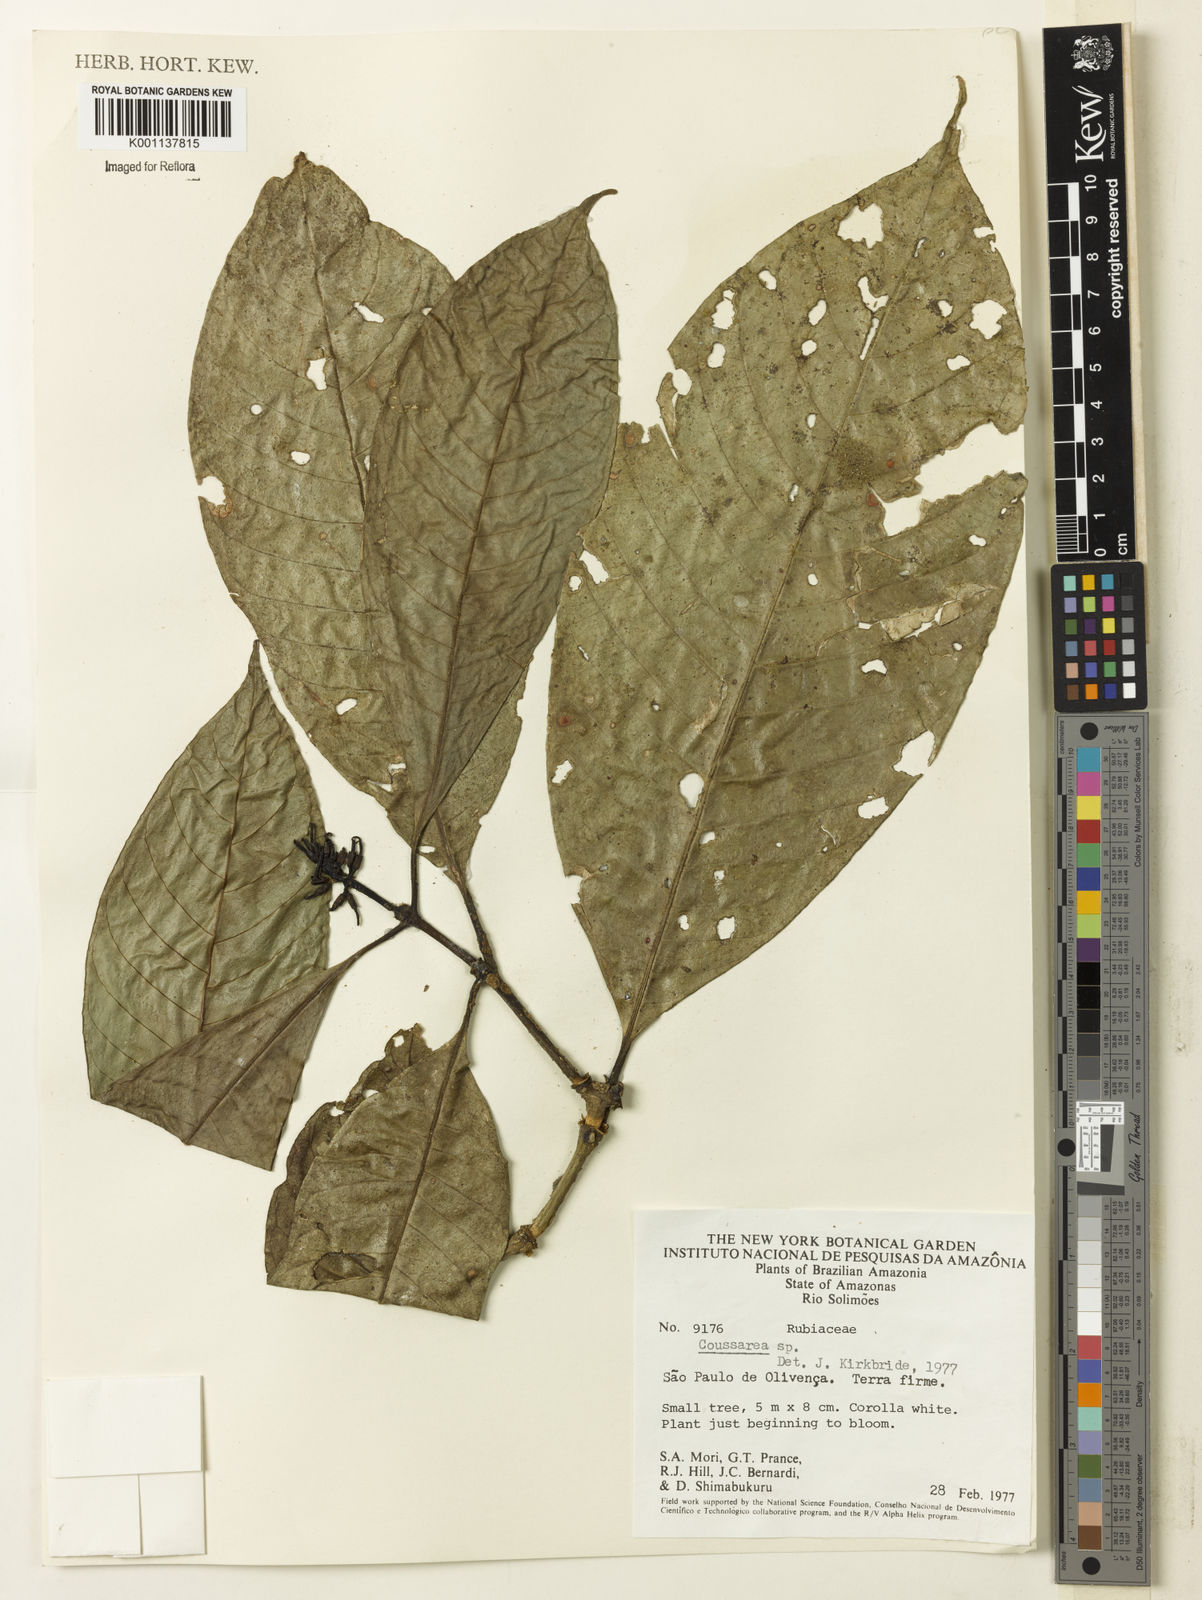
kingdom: Plantae
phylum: Tracheophyta
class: Magnoliopsida
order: Gentianales
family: Rubiaceae
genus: Coussarea
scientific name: Coussarea
